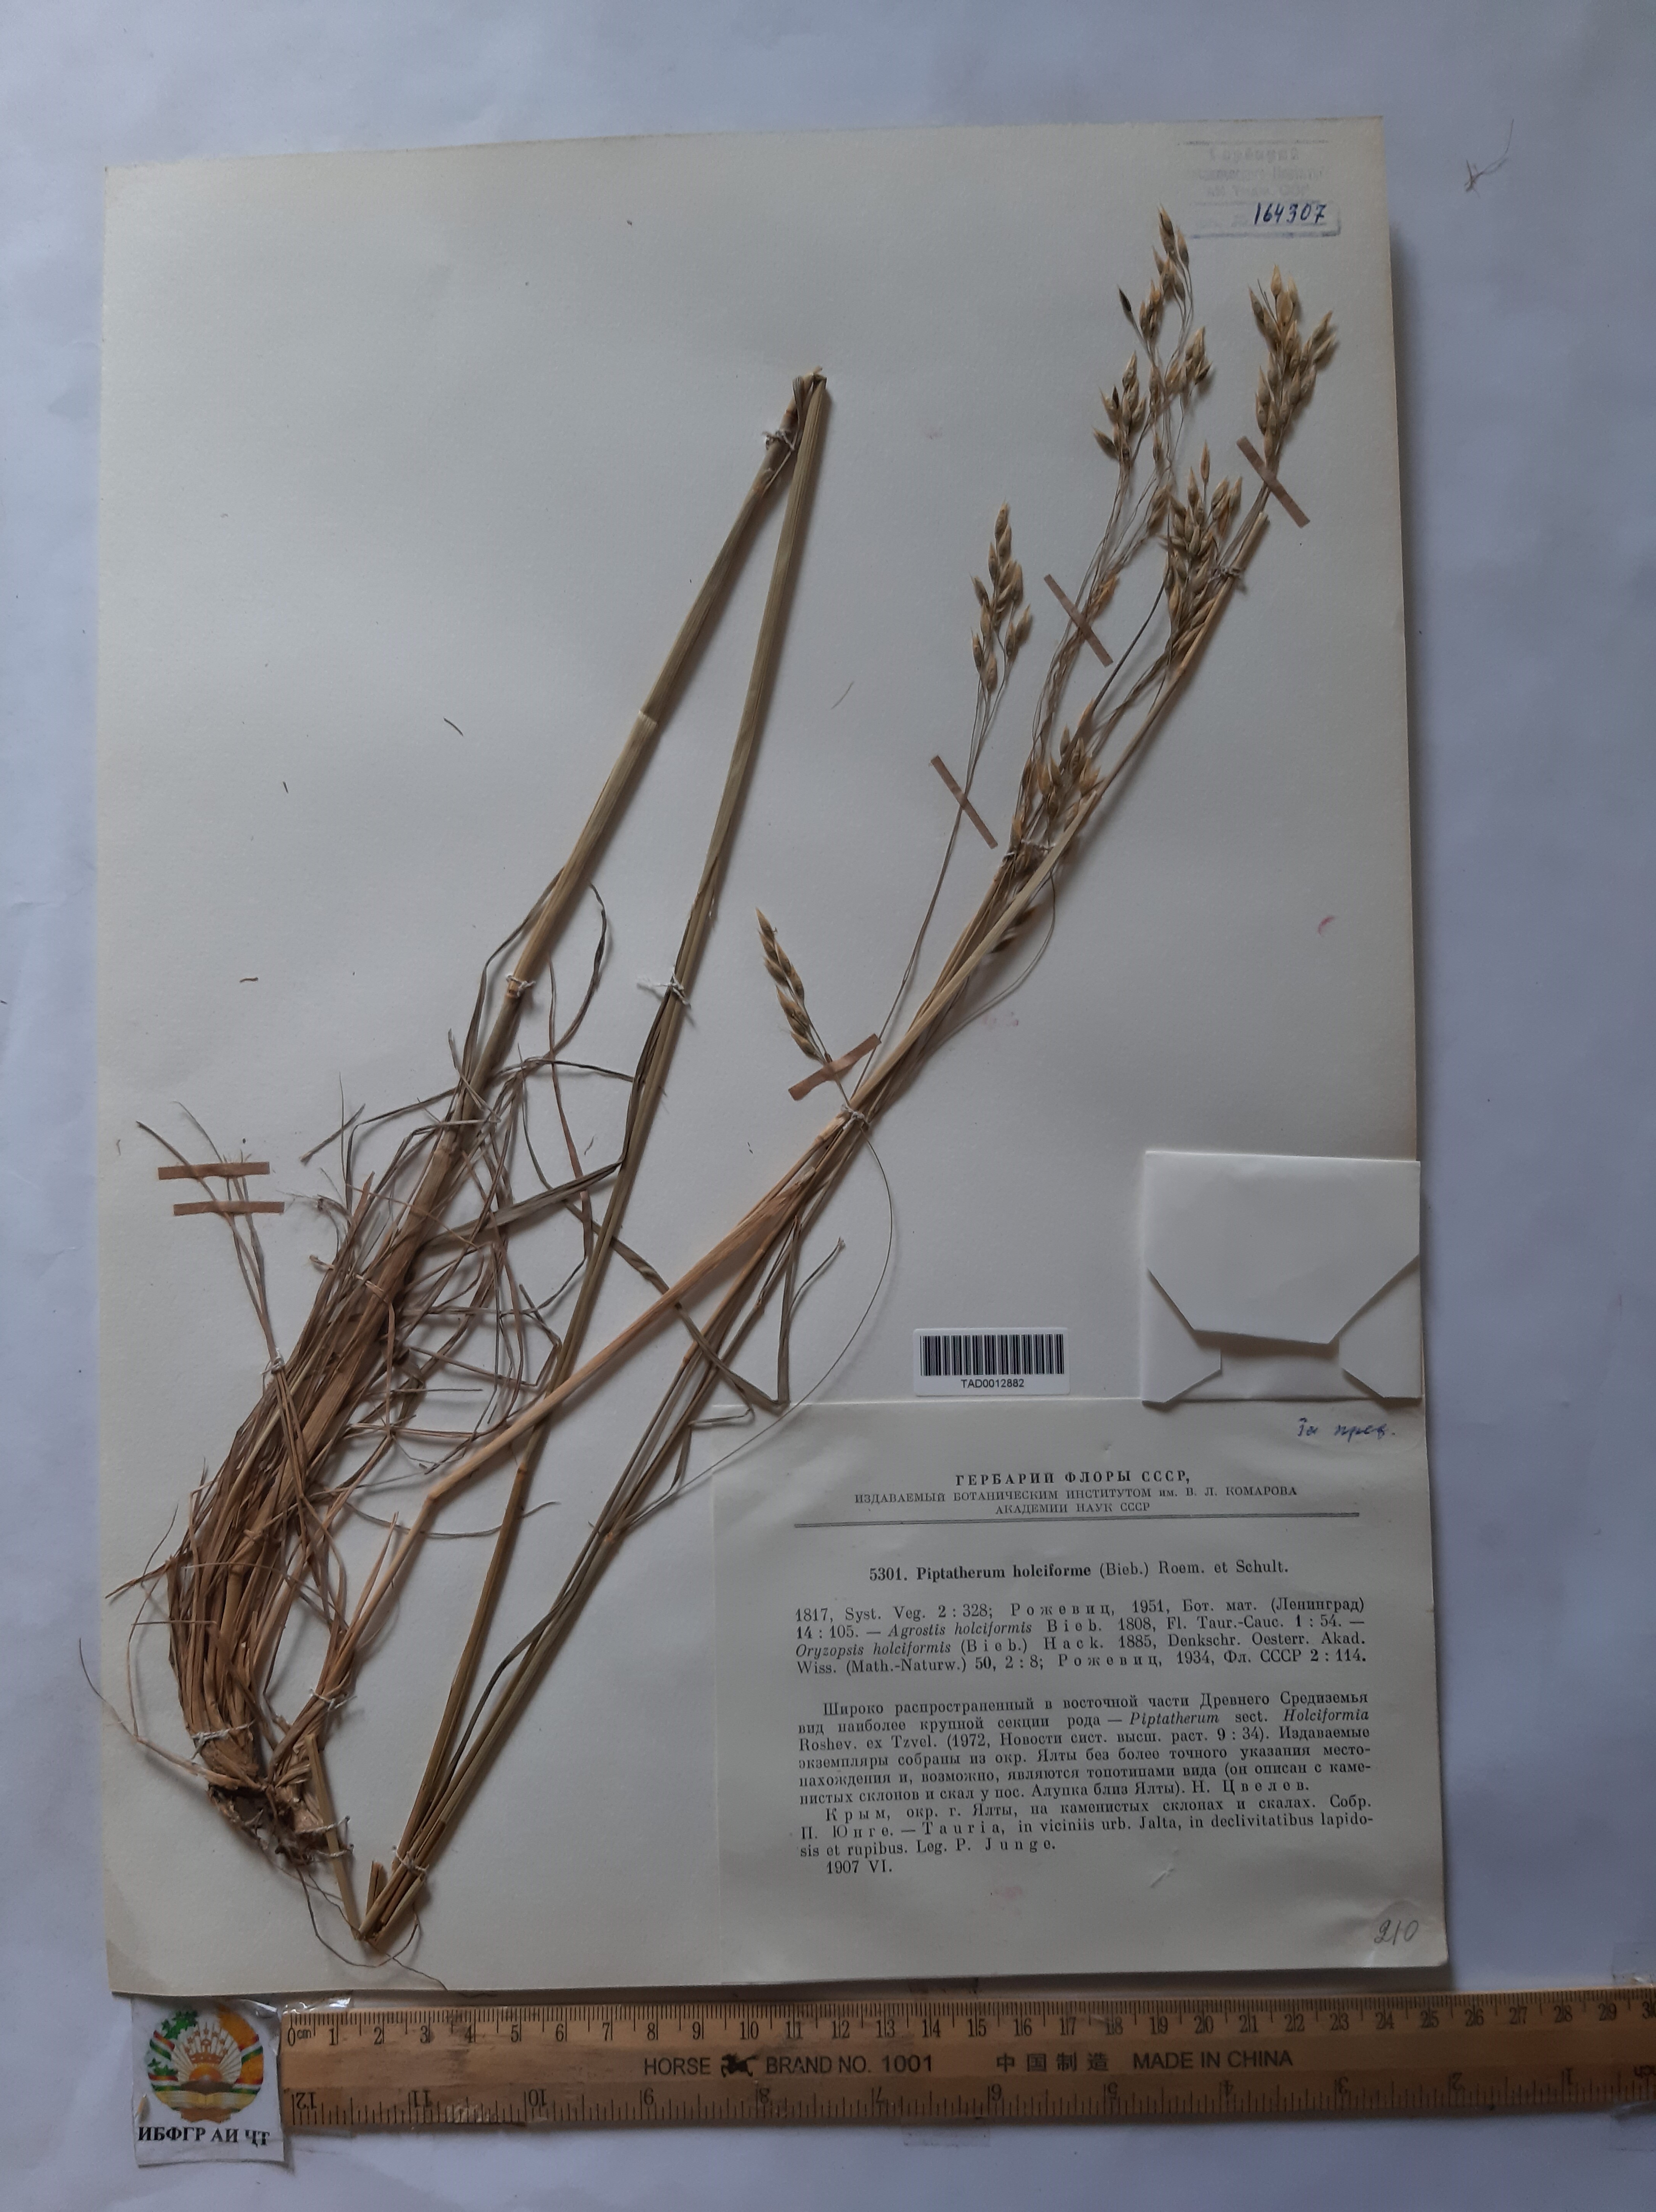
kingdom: Plantae
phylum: Tracheophyta
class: Liliopsida
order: Poales
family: Poaceae
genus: Piptatherum
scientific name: Piptatherum holciforme
